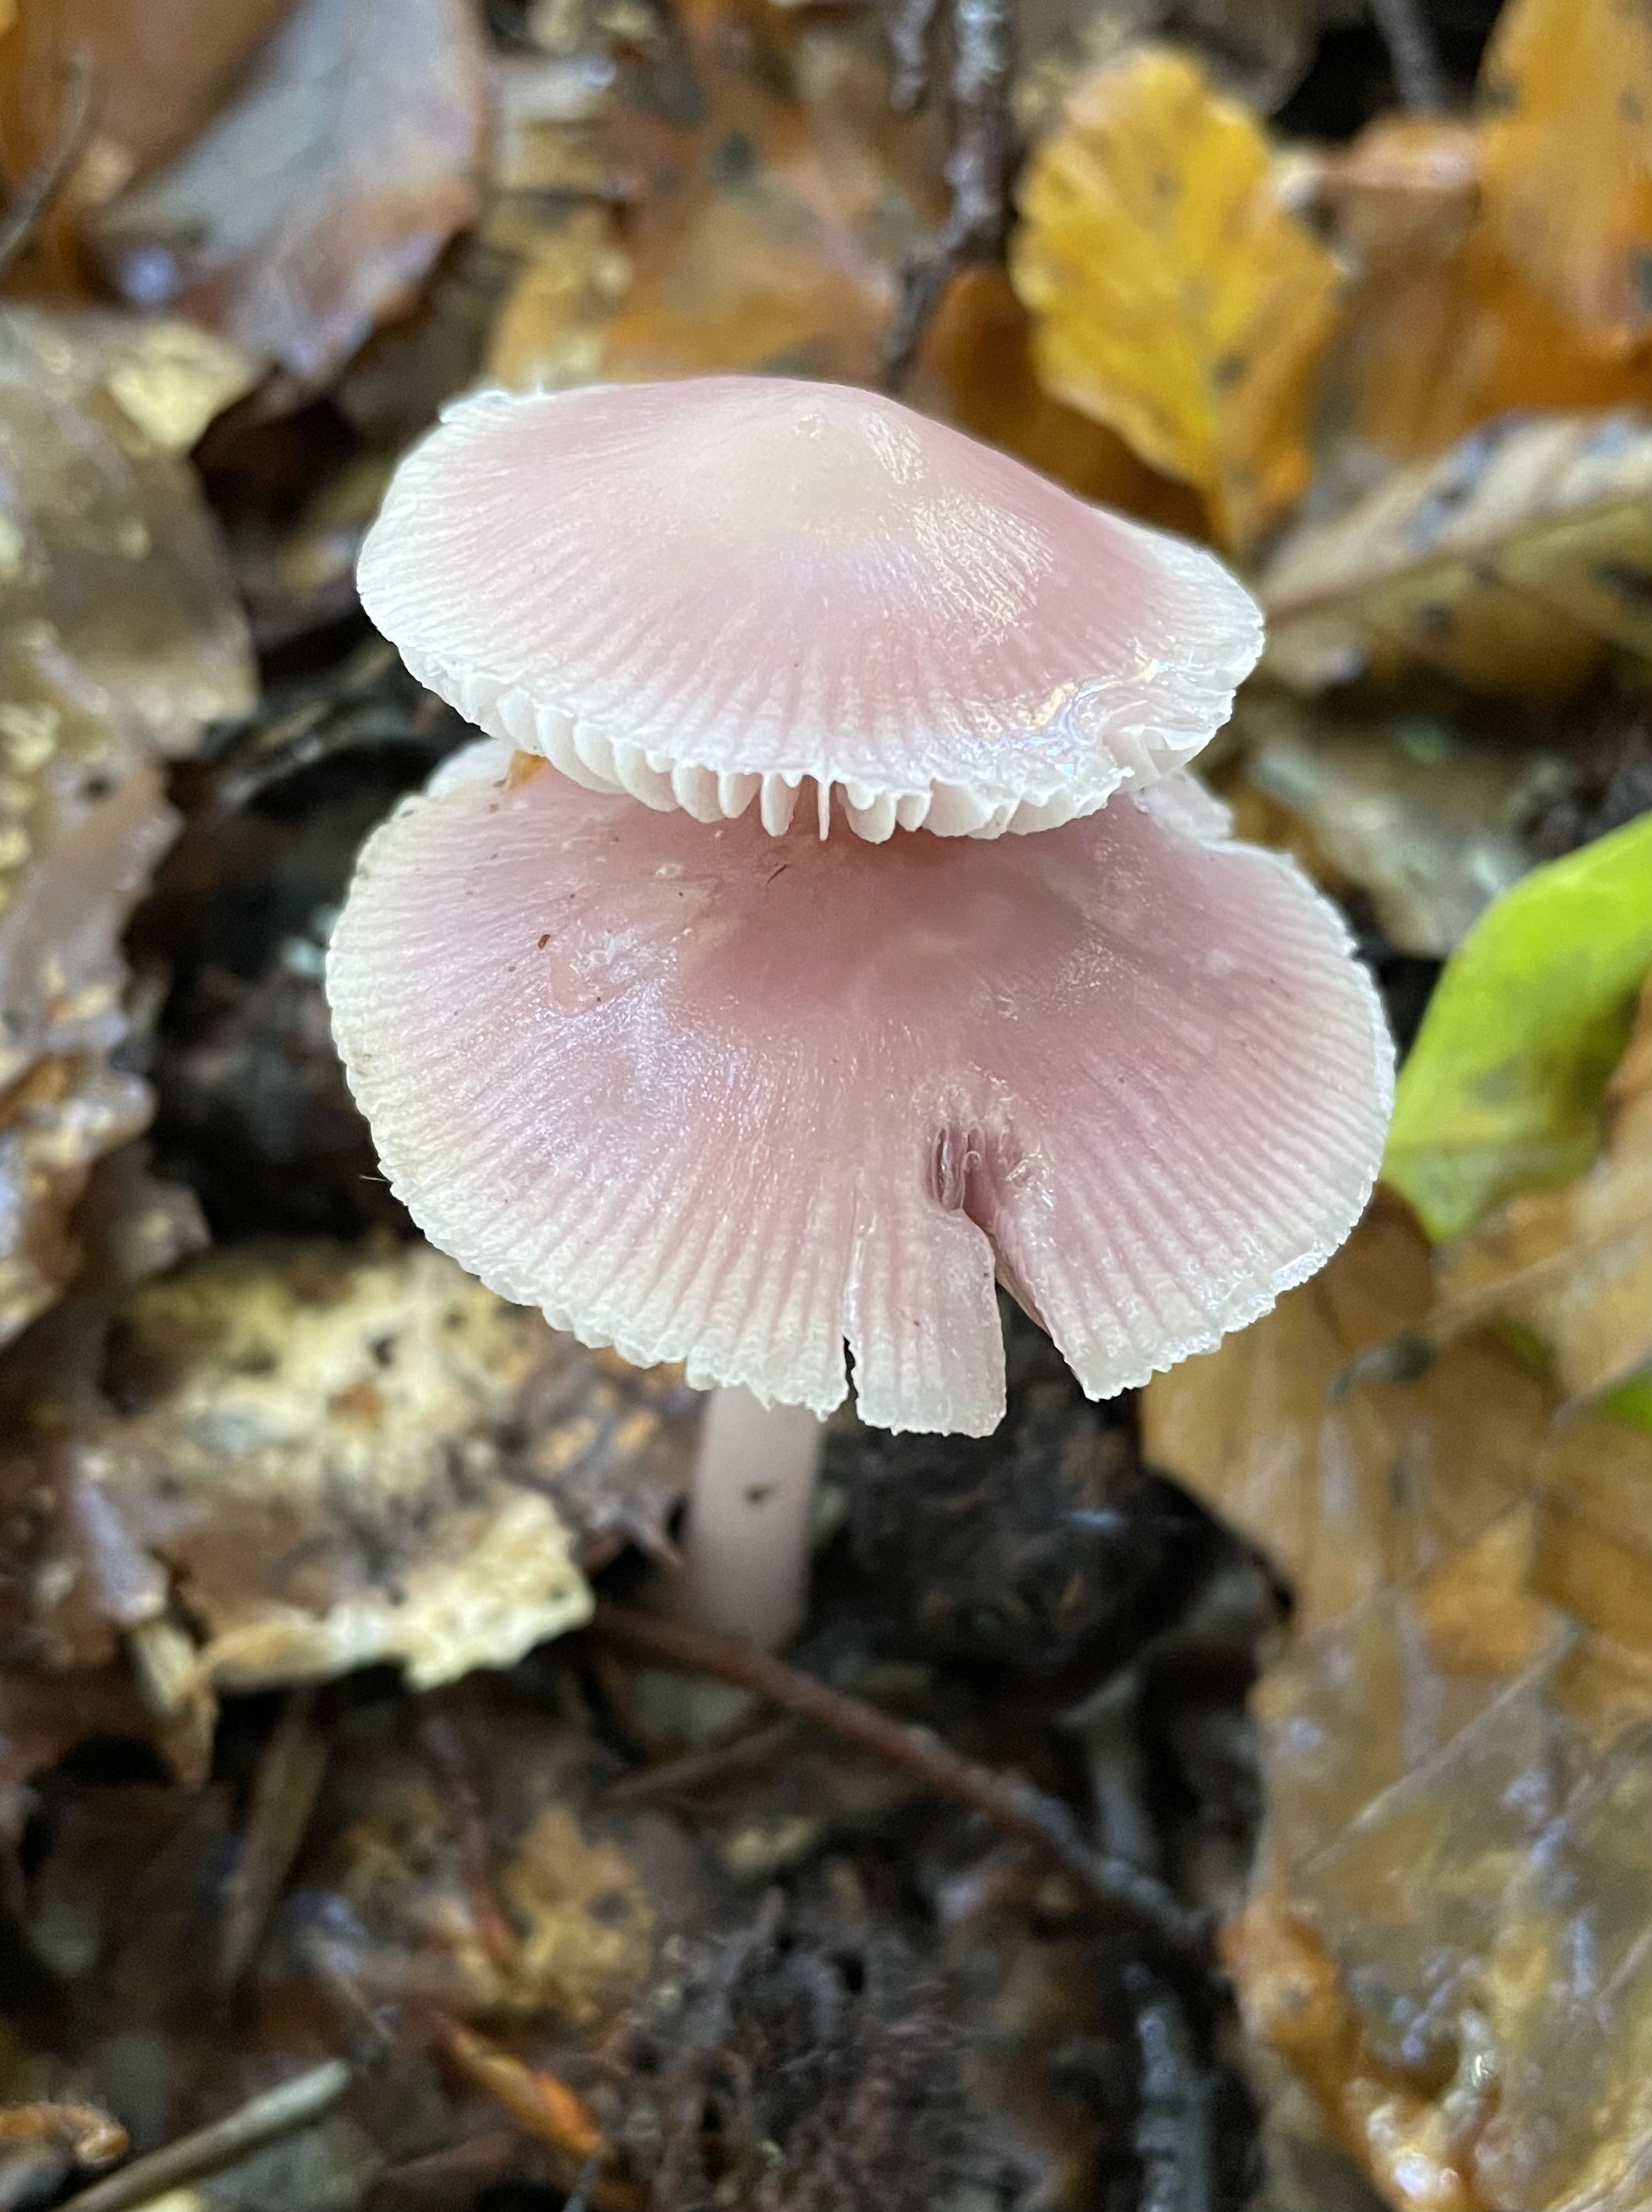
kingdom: Fungi
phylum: Basidiomycota
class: Agaricomycetes
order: Agaricales
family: Mycenaceae
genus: Mycena
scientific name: Mycena rosea
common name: rosa huesvamp
